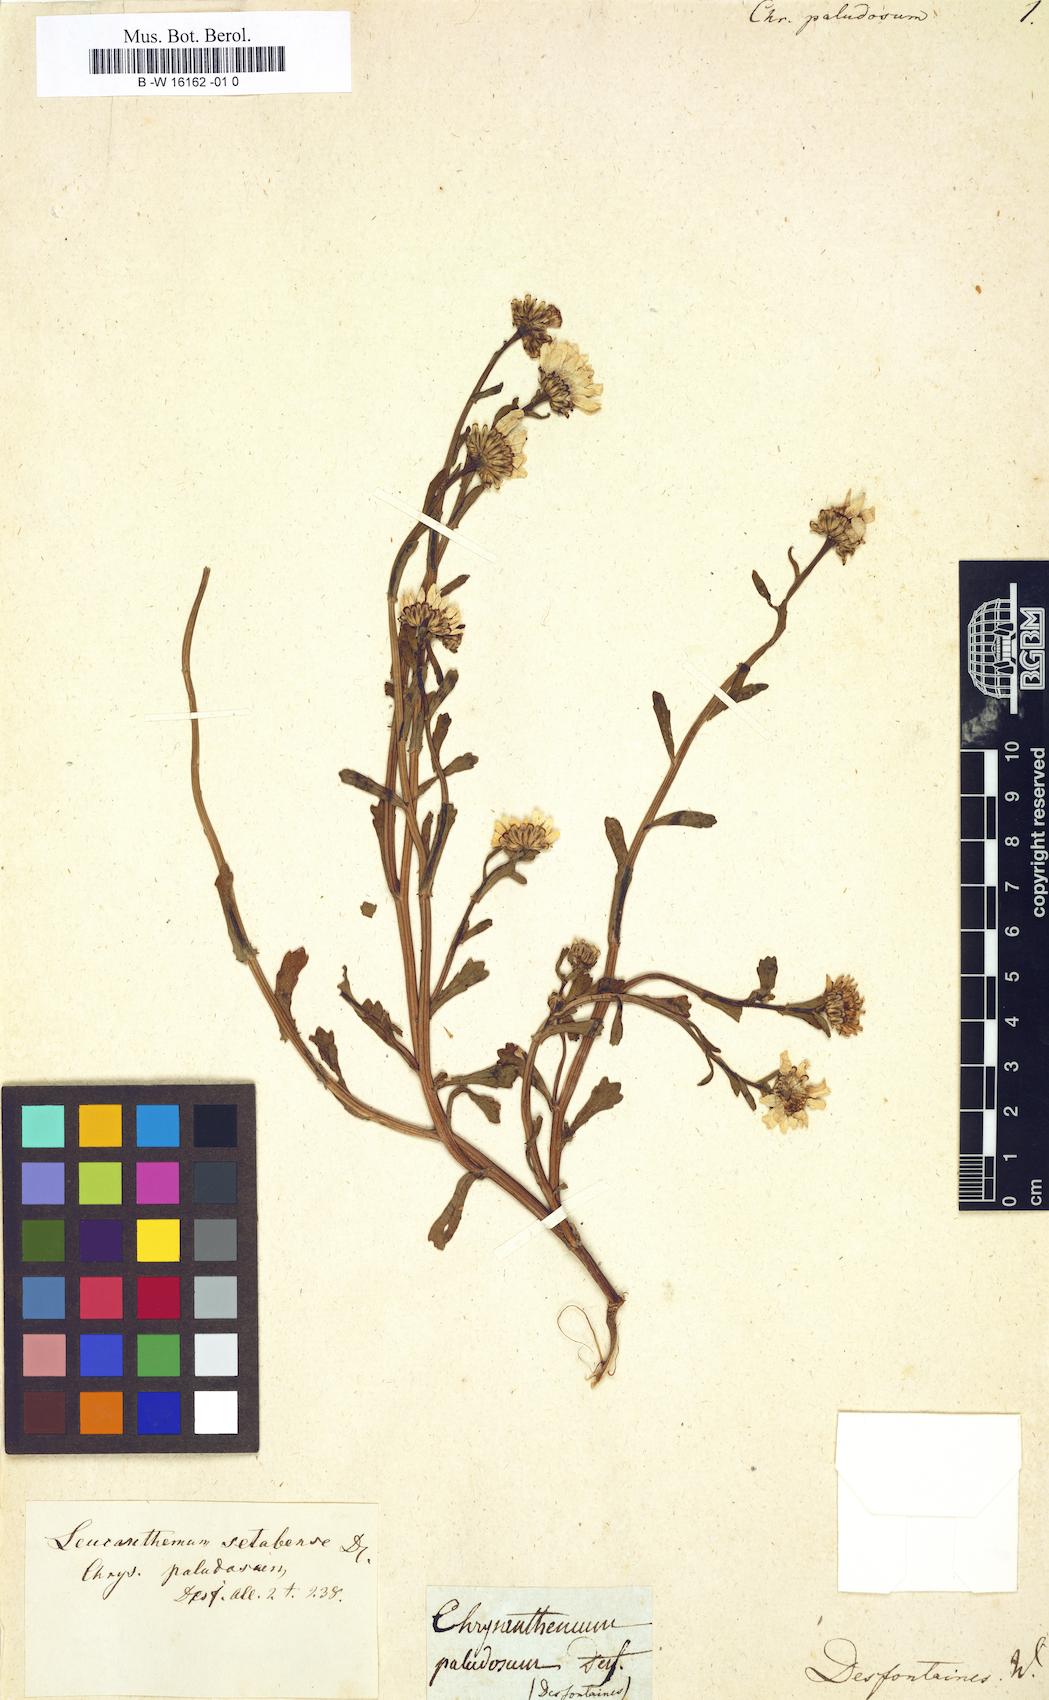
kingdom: Plantae
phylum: Tracheophyta
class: Magnoliopsida
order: Asterales
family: Asteraceae
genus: Mauranthemum
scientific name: Mauranthemum paludosum
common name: Sunflower
